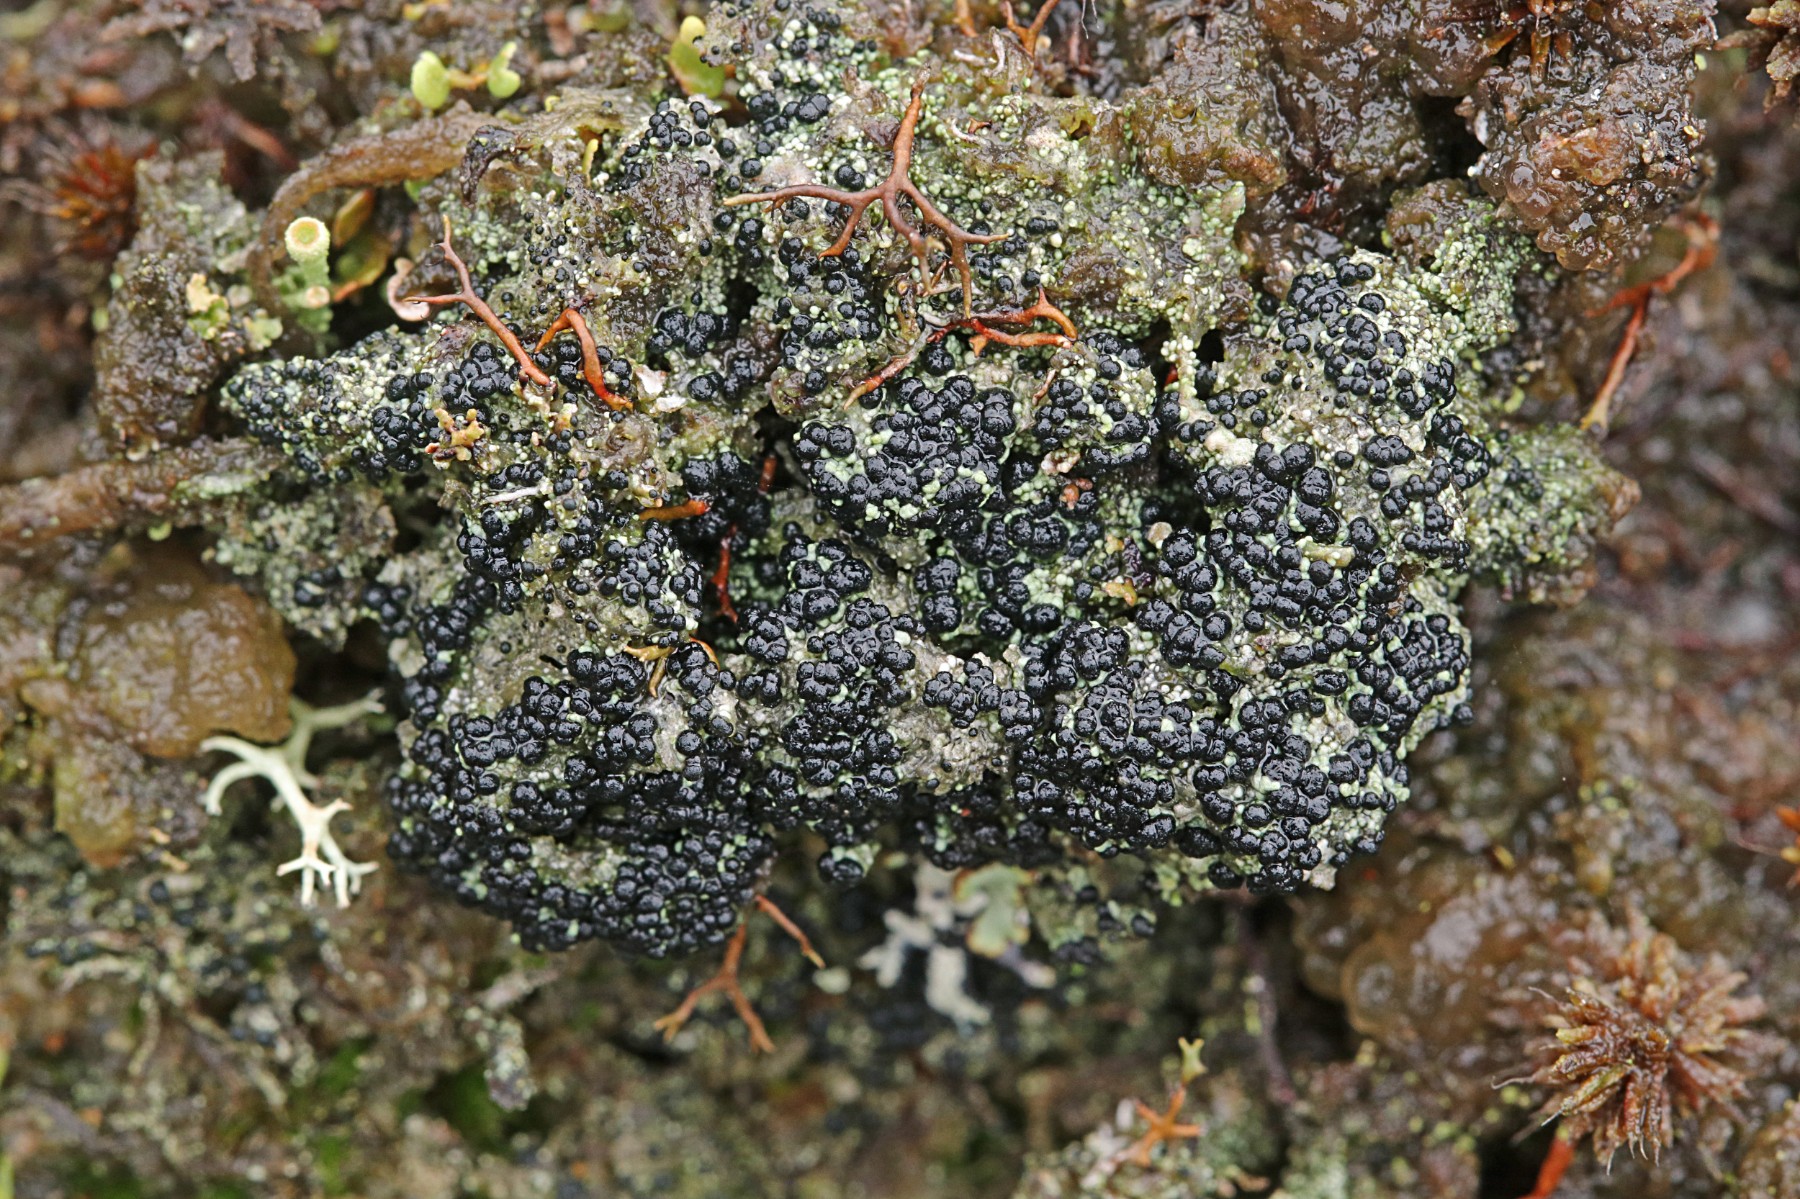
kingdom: Fungi
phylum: Ascomycota
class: Lecanoromycetes
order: Lecanorales
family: Byssolomataceae
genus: Micarea
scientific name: Micarea lignaria
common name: tørve-knaplav
